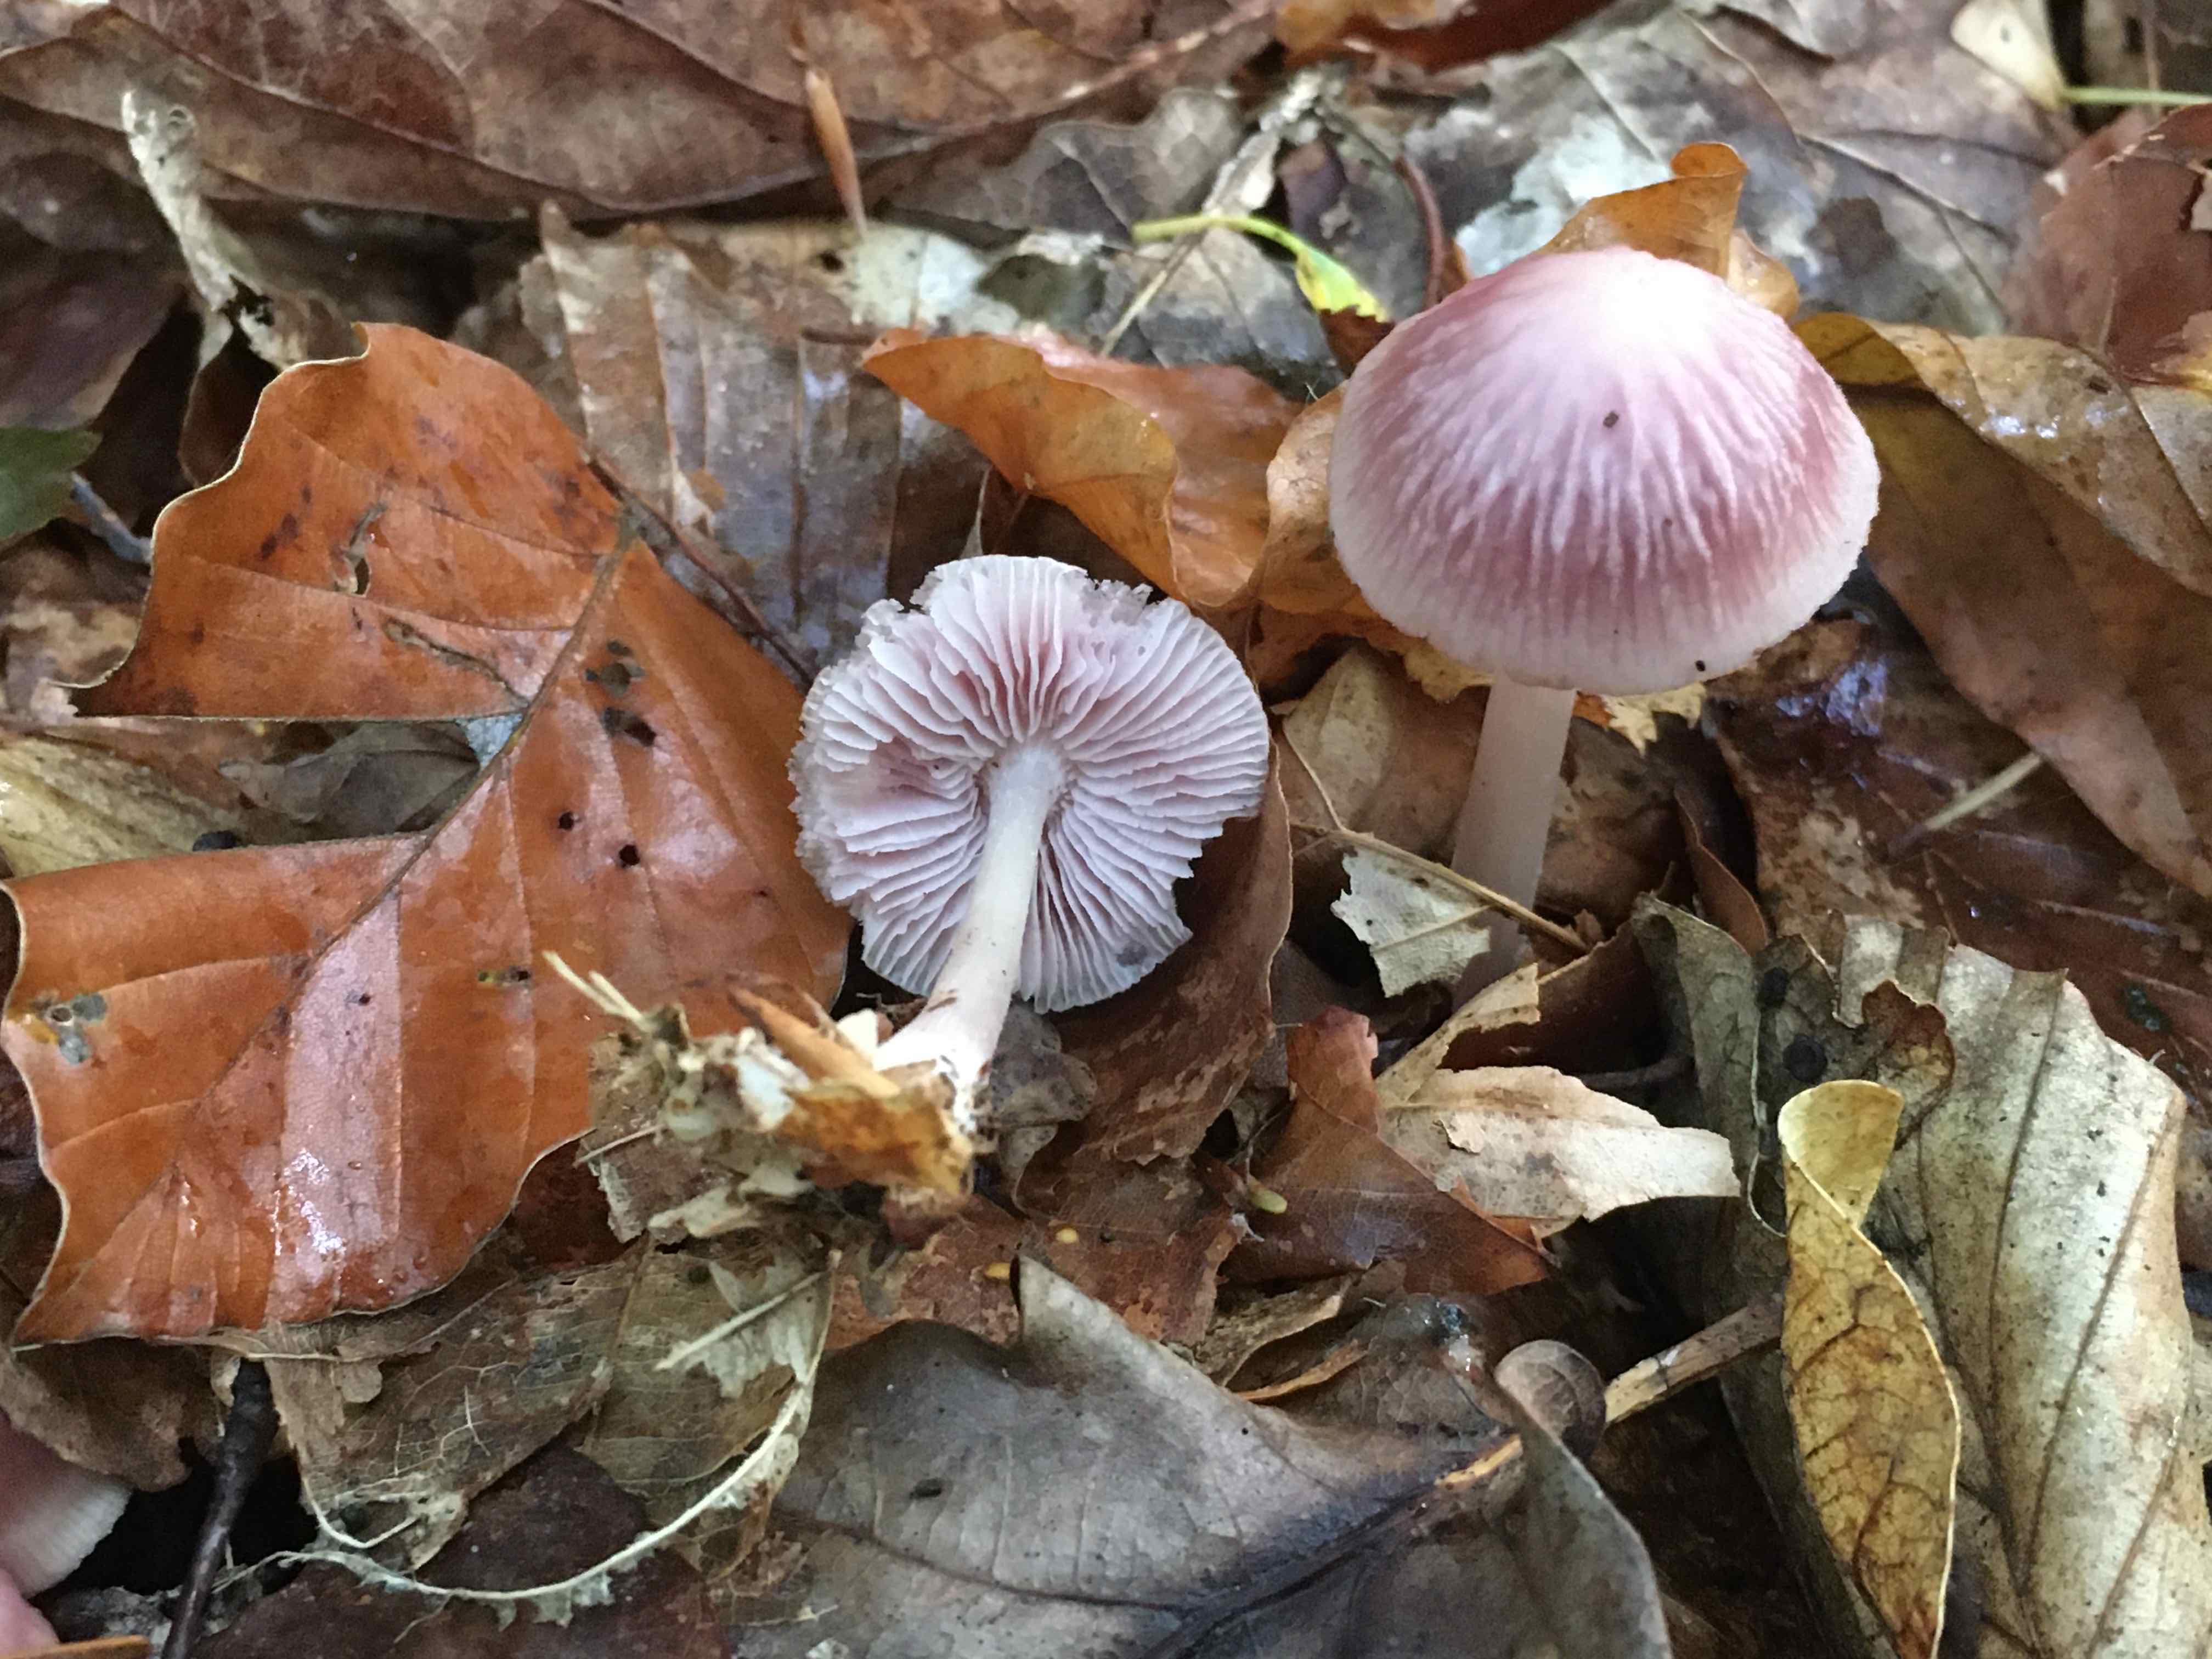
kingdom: Fungi
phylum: Basidiomycota
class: Agaricomycetes
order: Agaricales
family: Mycenaceae
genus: Mycena
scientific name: Mycena rosea
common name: rosa huesvamp
